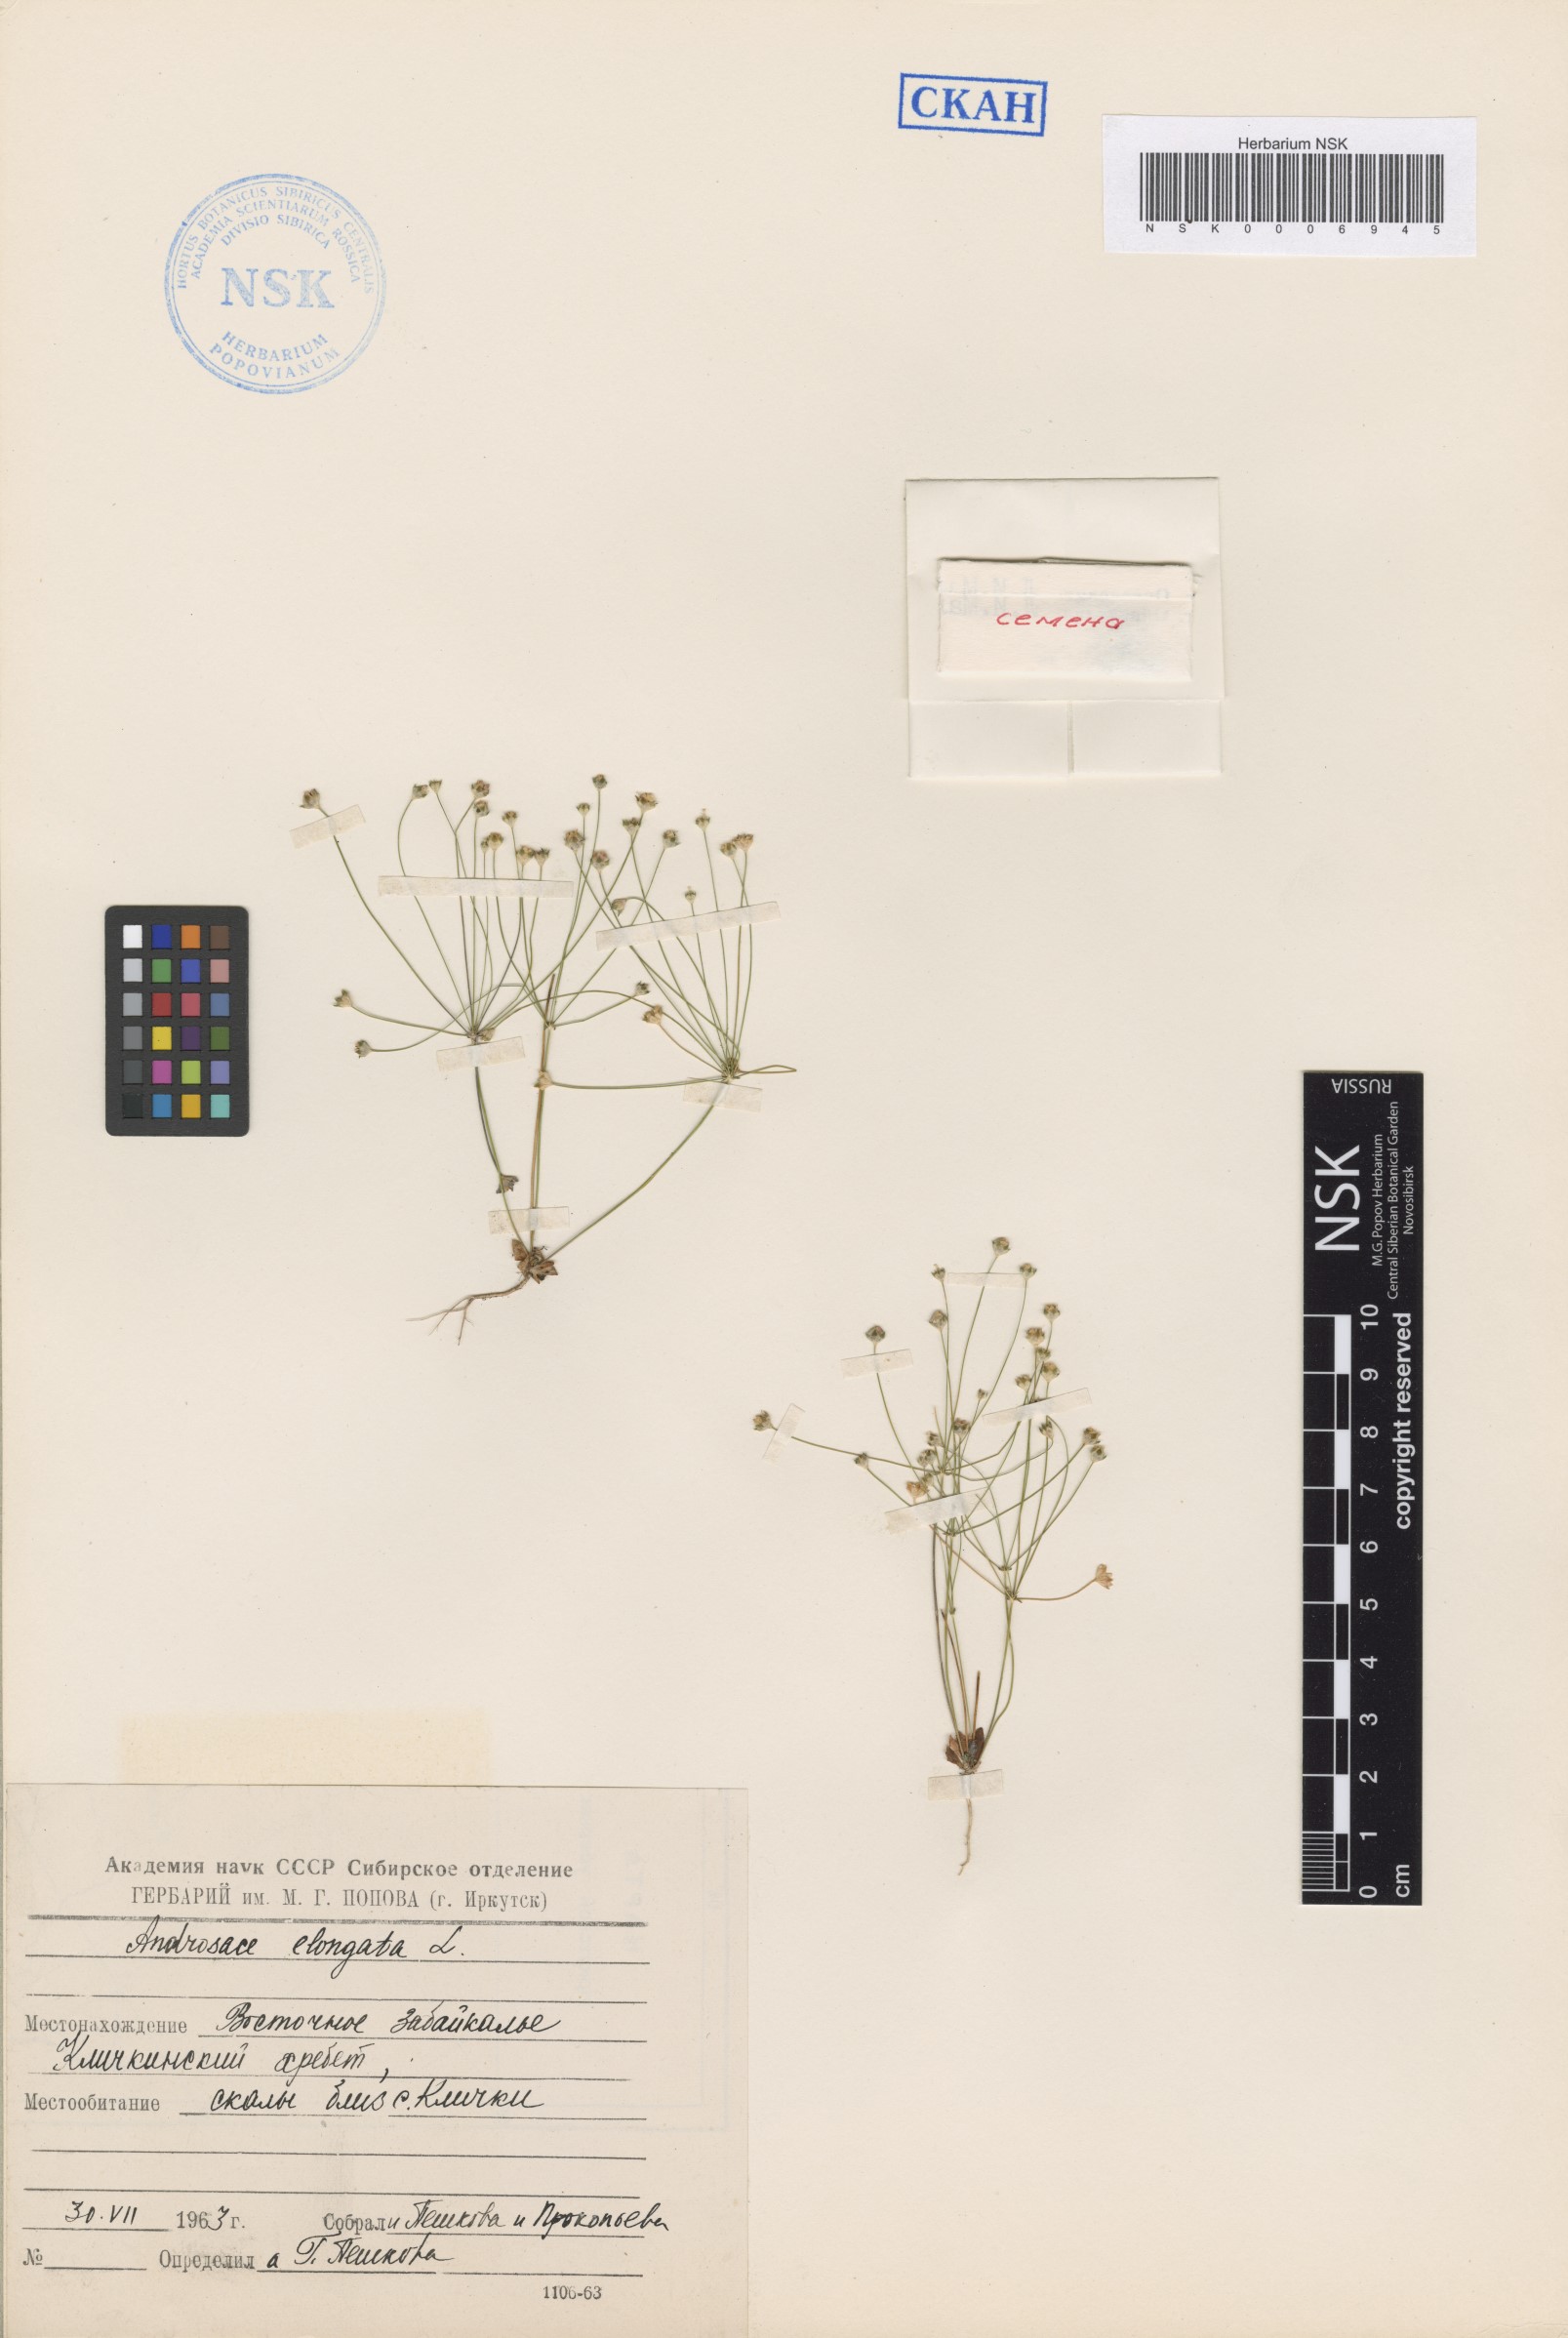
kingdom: Plantae
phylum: Tracheophyta
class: Magnoliopsida
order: Ericales
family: Primulaceae
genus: Androsace
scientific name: Androsace septentrionalis
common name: Hairy northern fairy-candelabra
